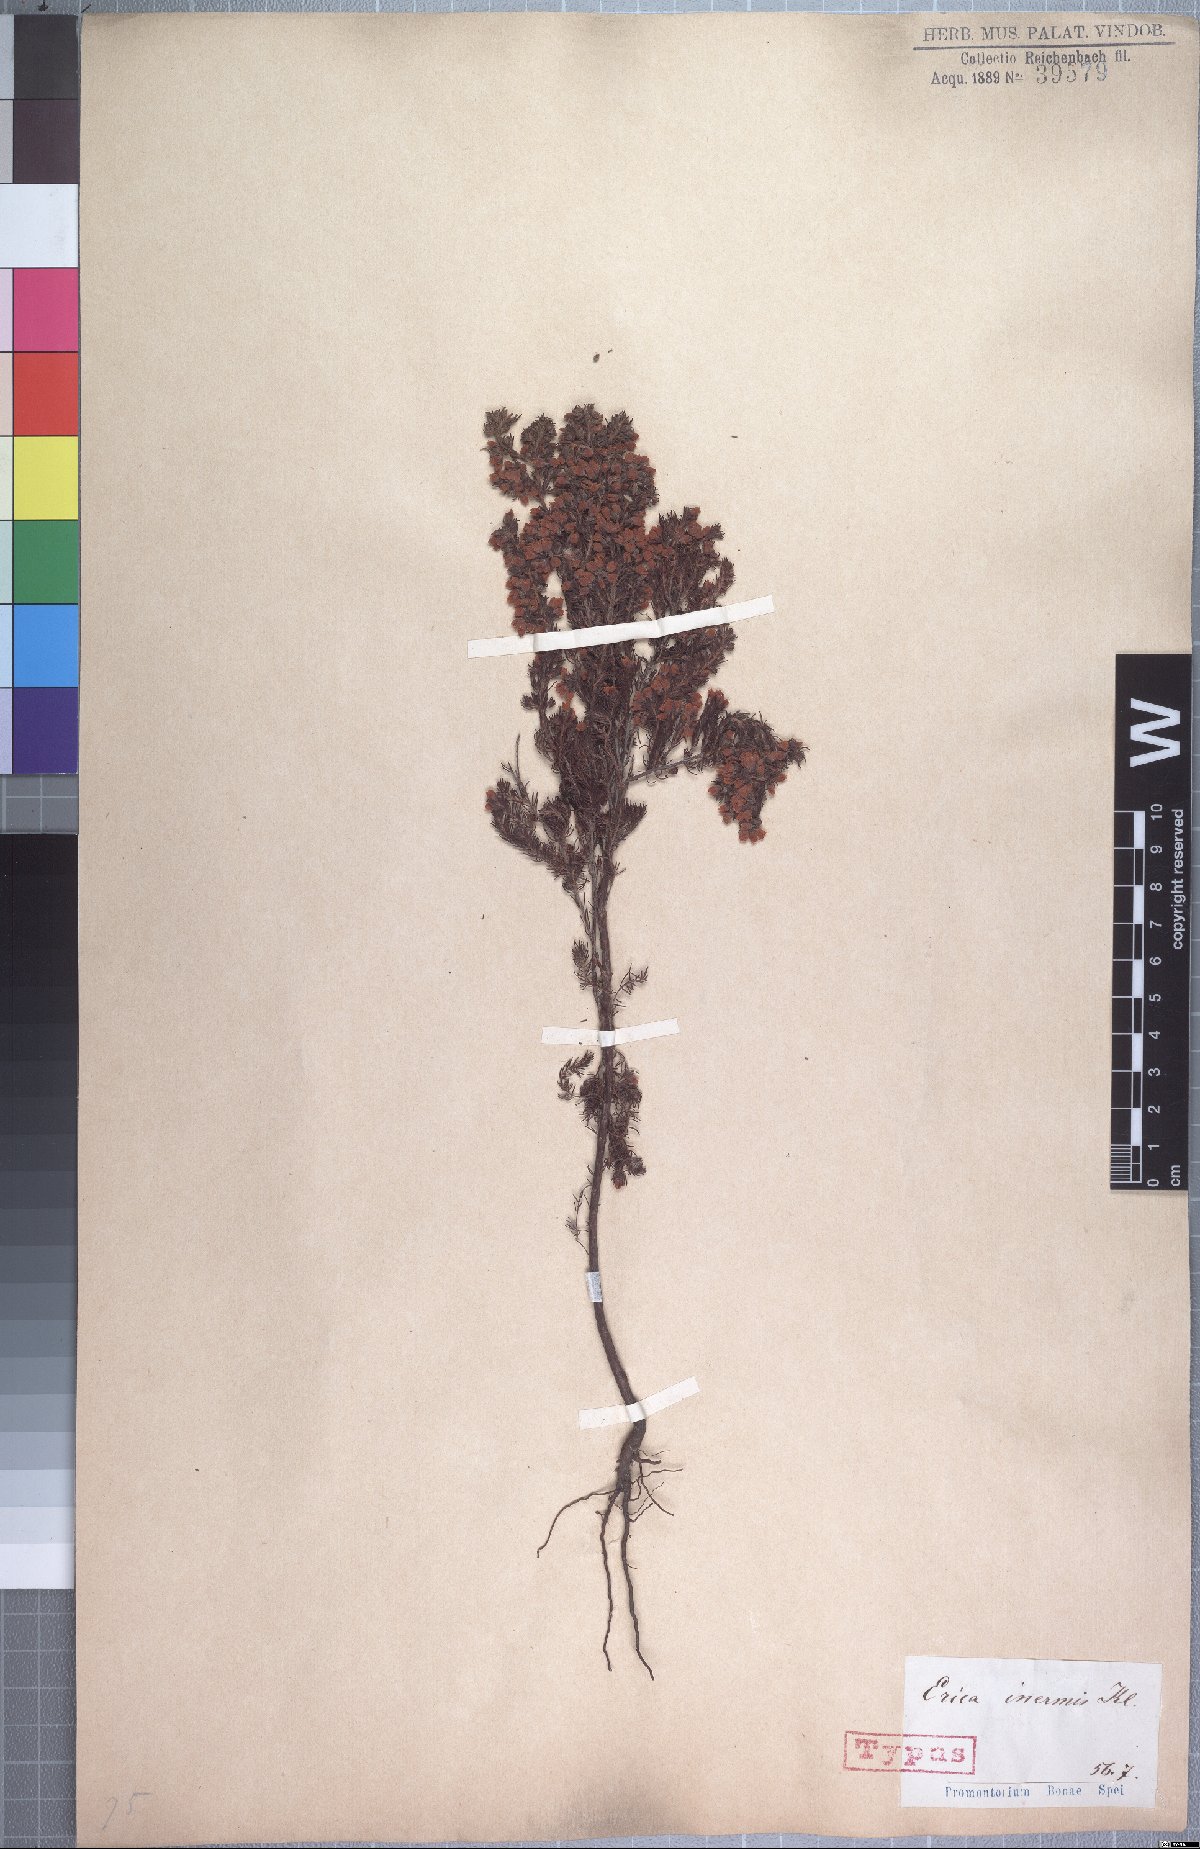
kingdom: Plantae
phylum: Tracheophyta
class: Magnoliopsida
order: Ericales
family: Ericaceae
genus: Erica
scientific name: Erica parviflora
